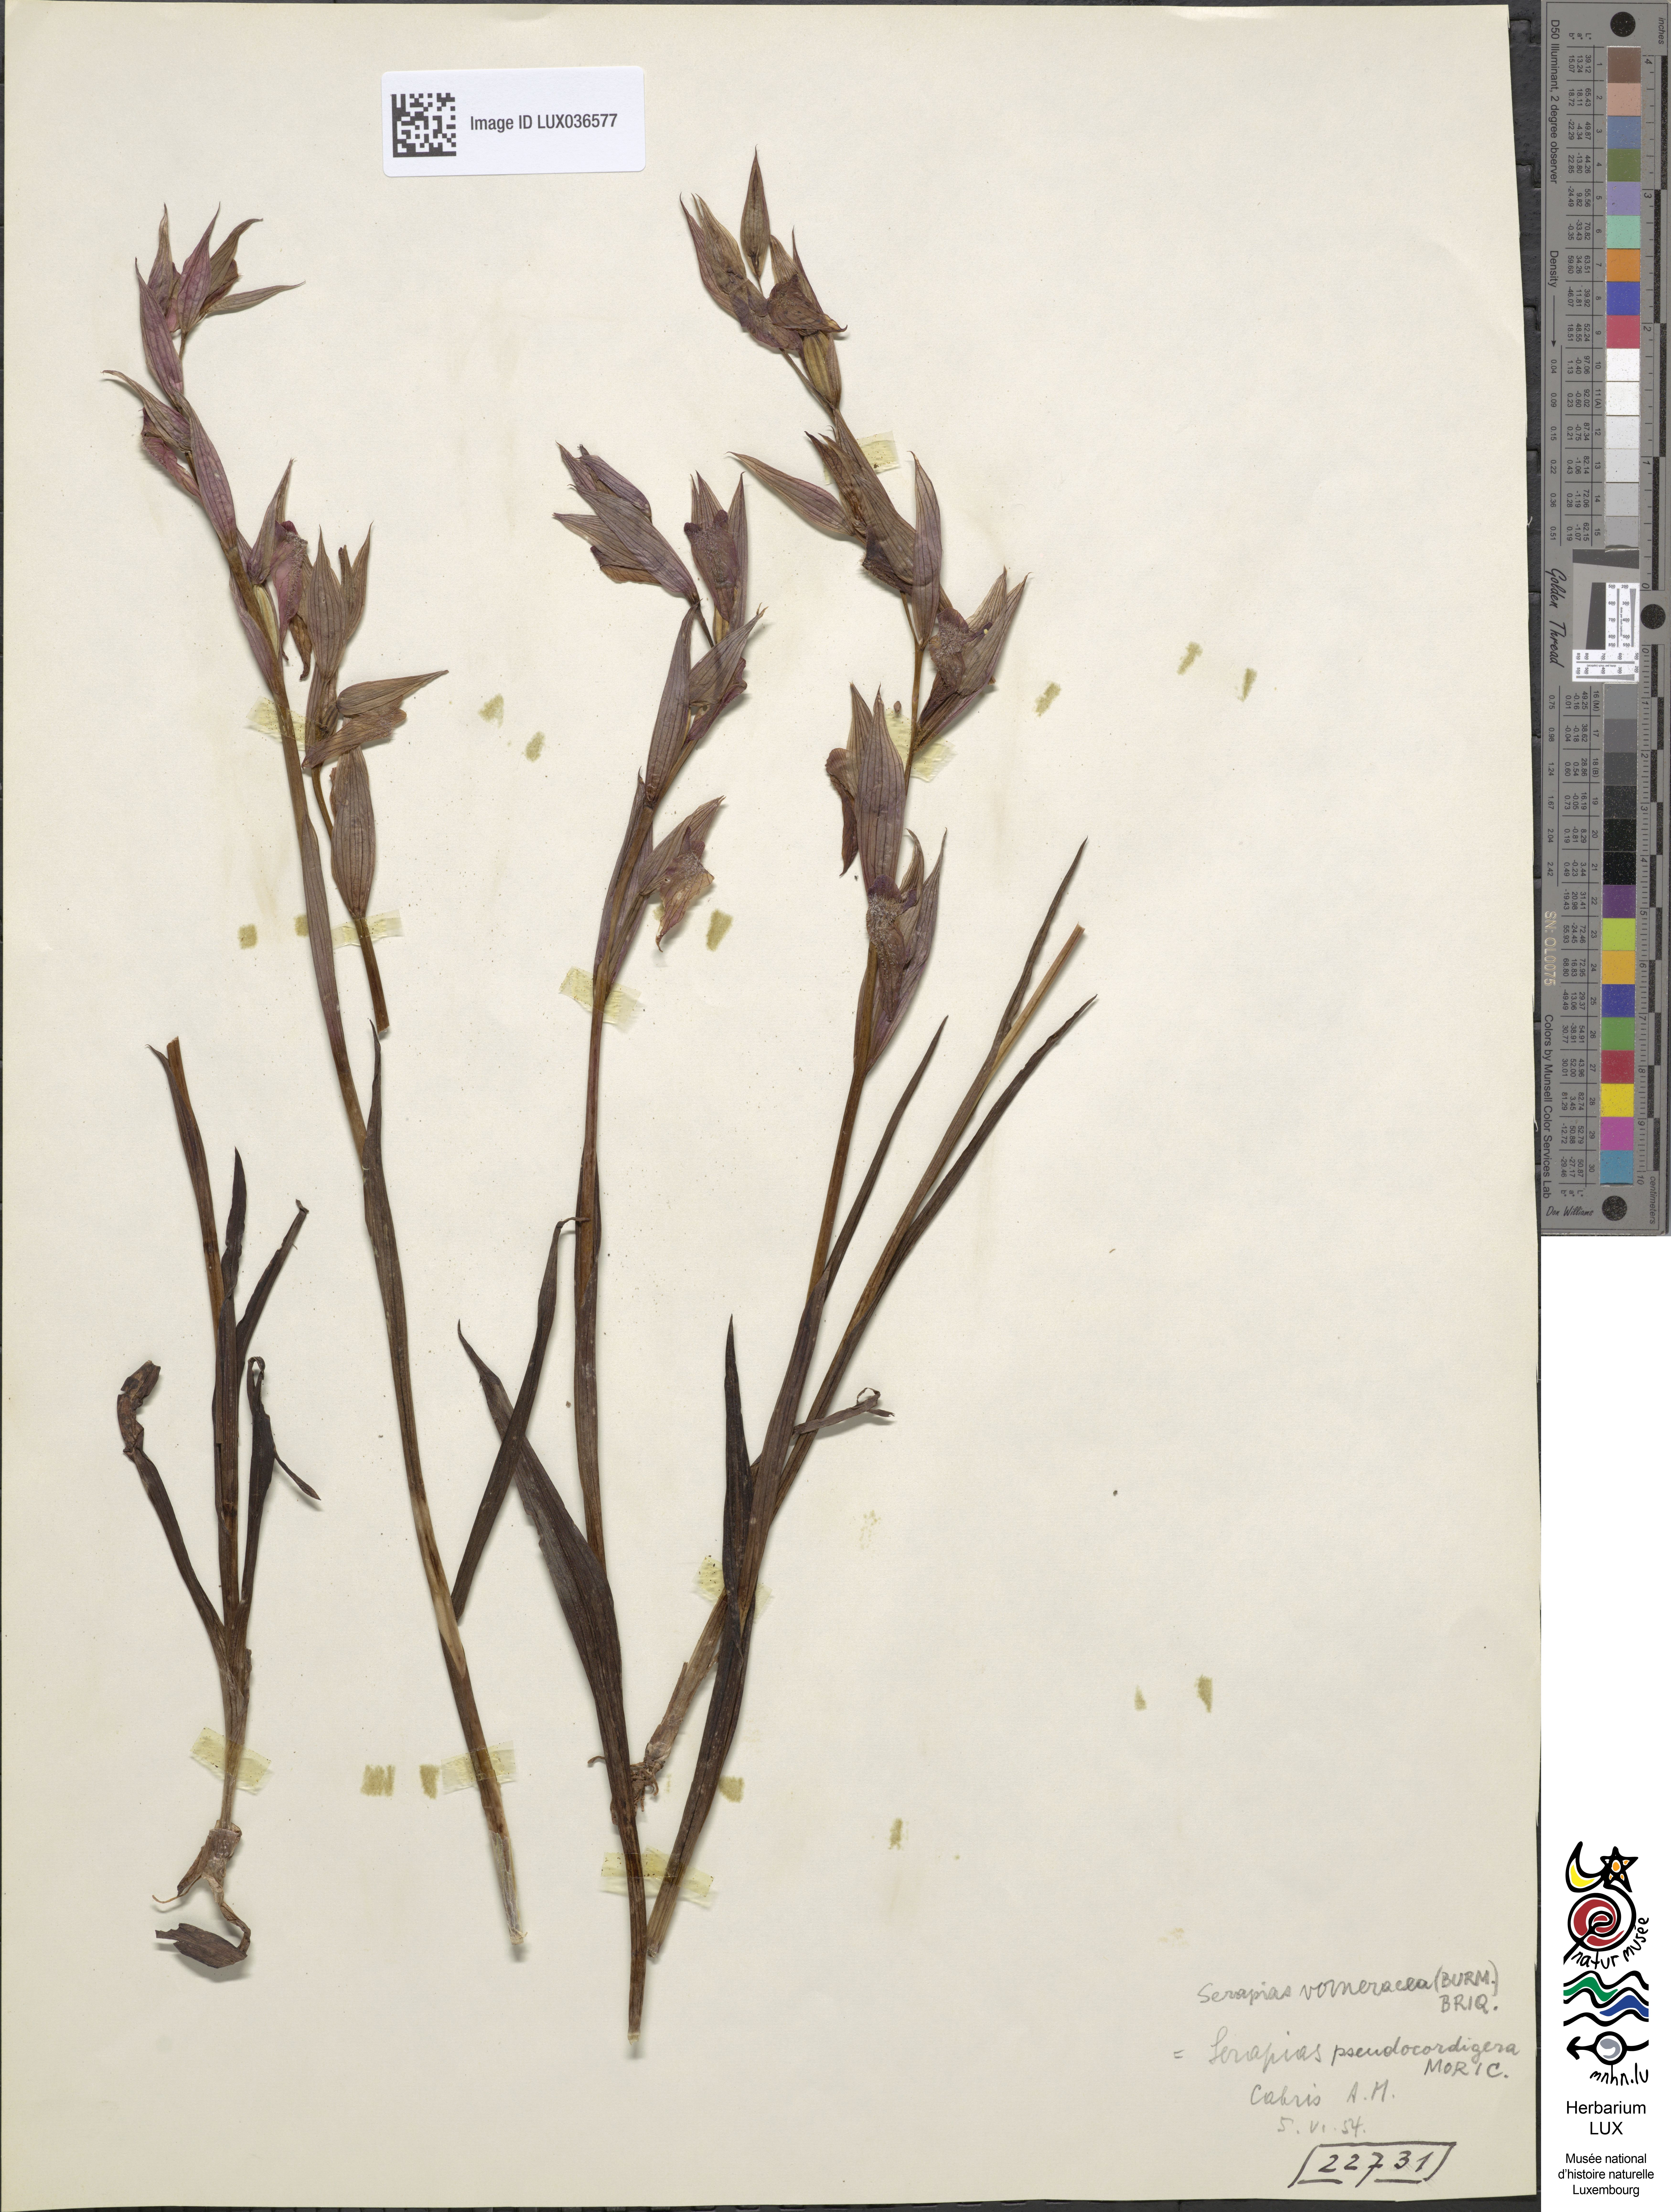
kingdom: Plantae
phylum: Tracheophyta
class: Liliopsida
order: Asparagales
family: Orchidaceae
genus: Serapias
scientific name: Serapias vomeracea
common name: Long-lipped tongue-orchid
